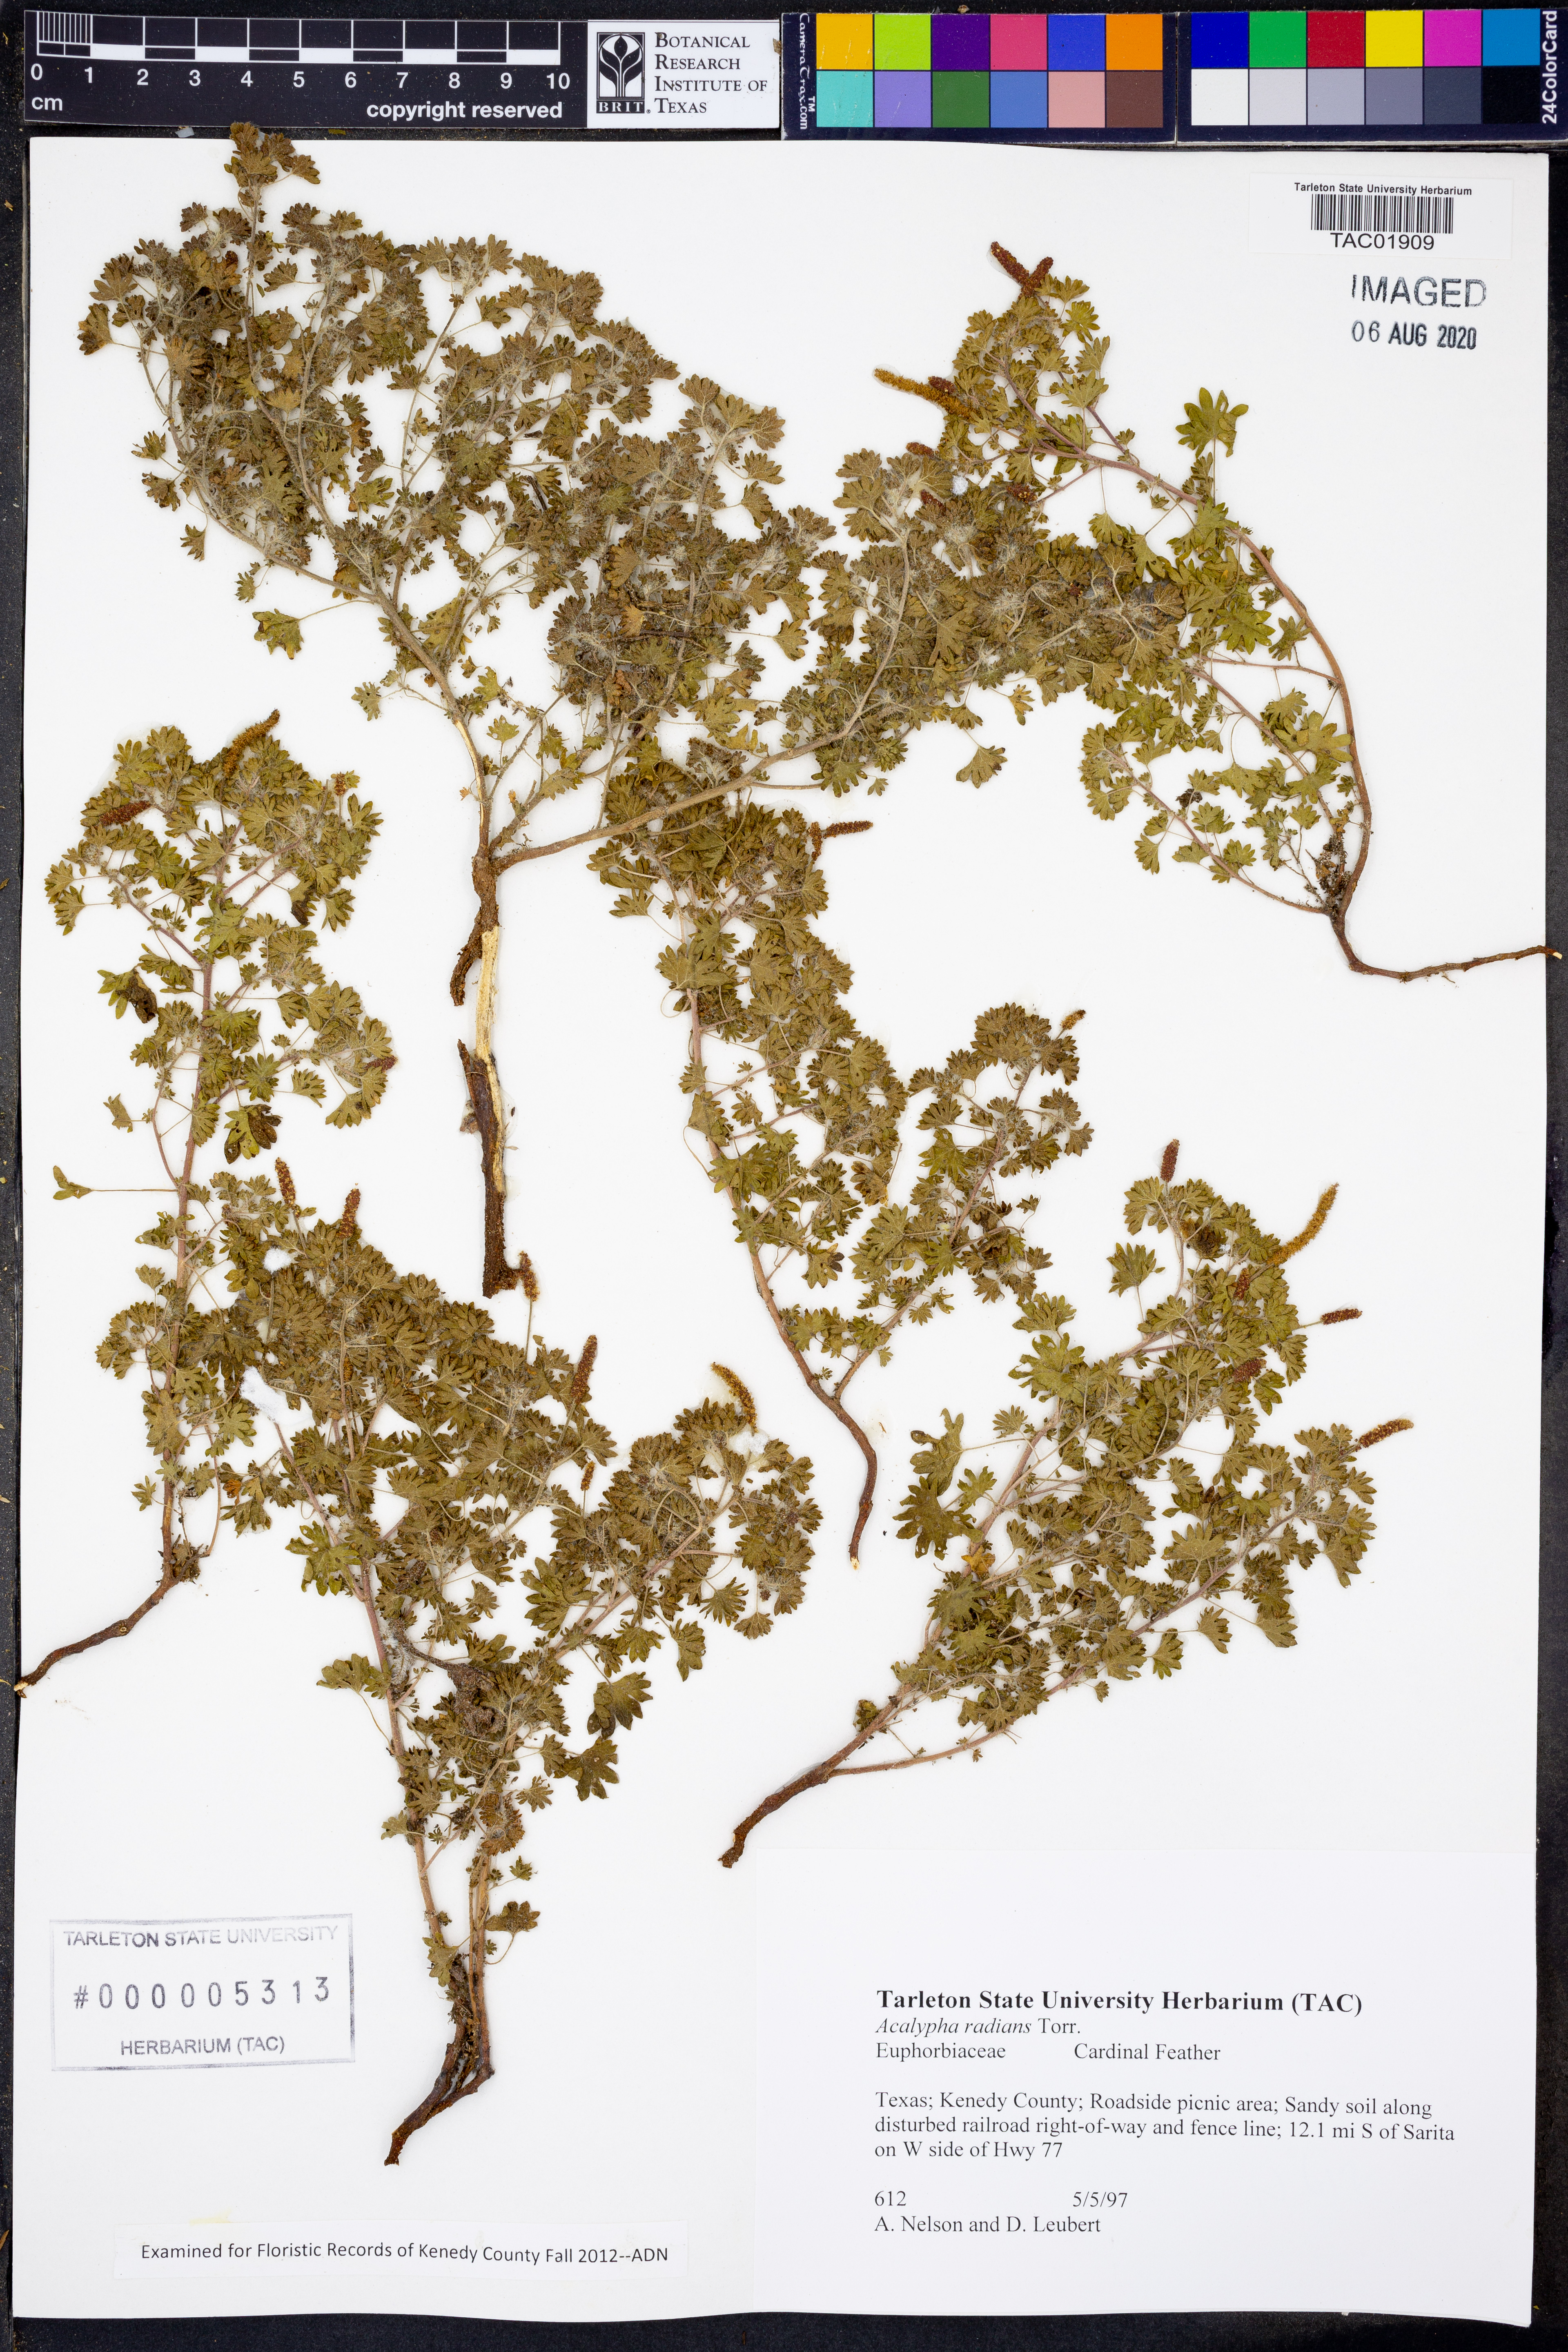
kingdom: Plantae
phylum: Tracheophyta
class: Magnoliopsida
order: Malpighiales
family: Euphorbiaceae
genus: Acalypha
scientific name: Acalypha radians
